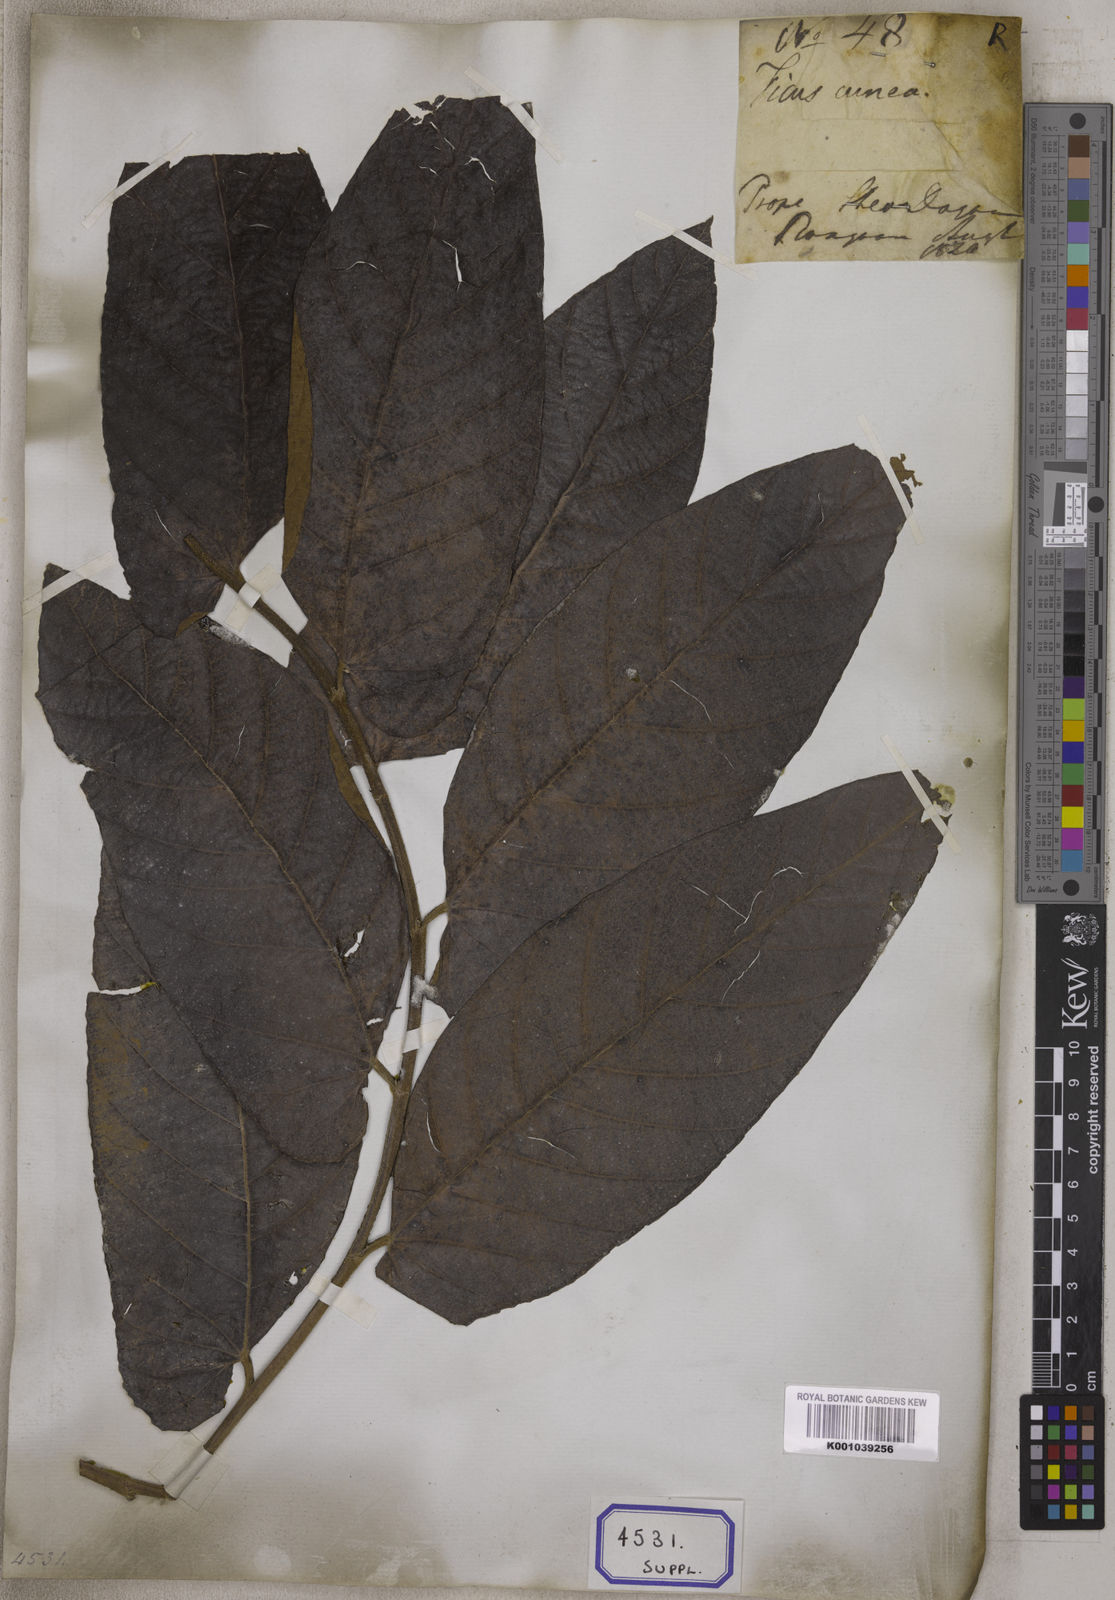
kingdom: Plantae
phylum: Tracheophyta
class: Magnoliopsida
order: Rosales
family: Moraceae
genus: Ficus
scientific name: Ficus semicordata
